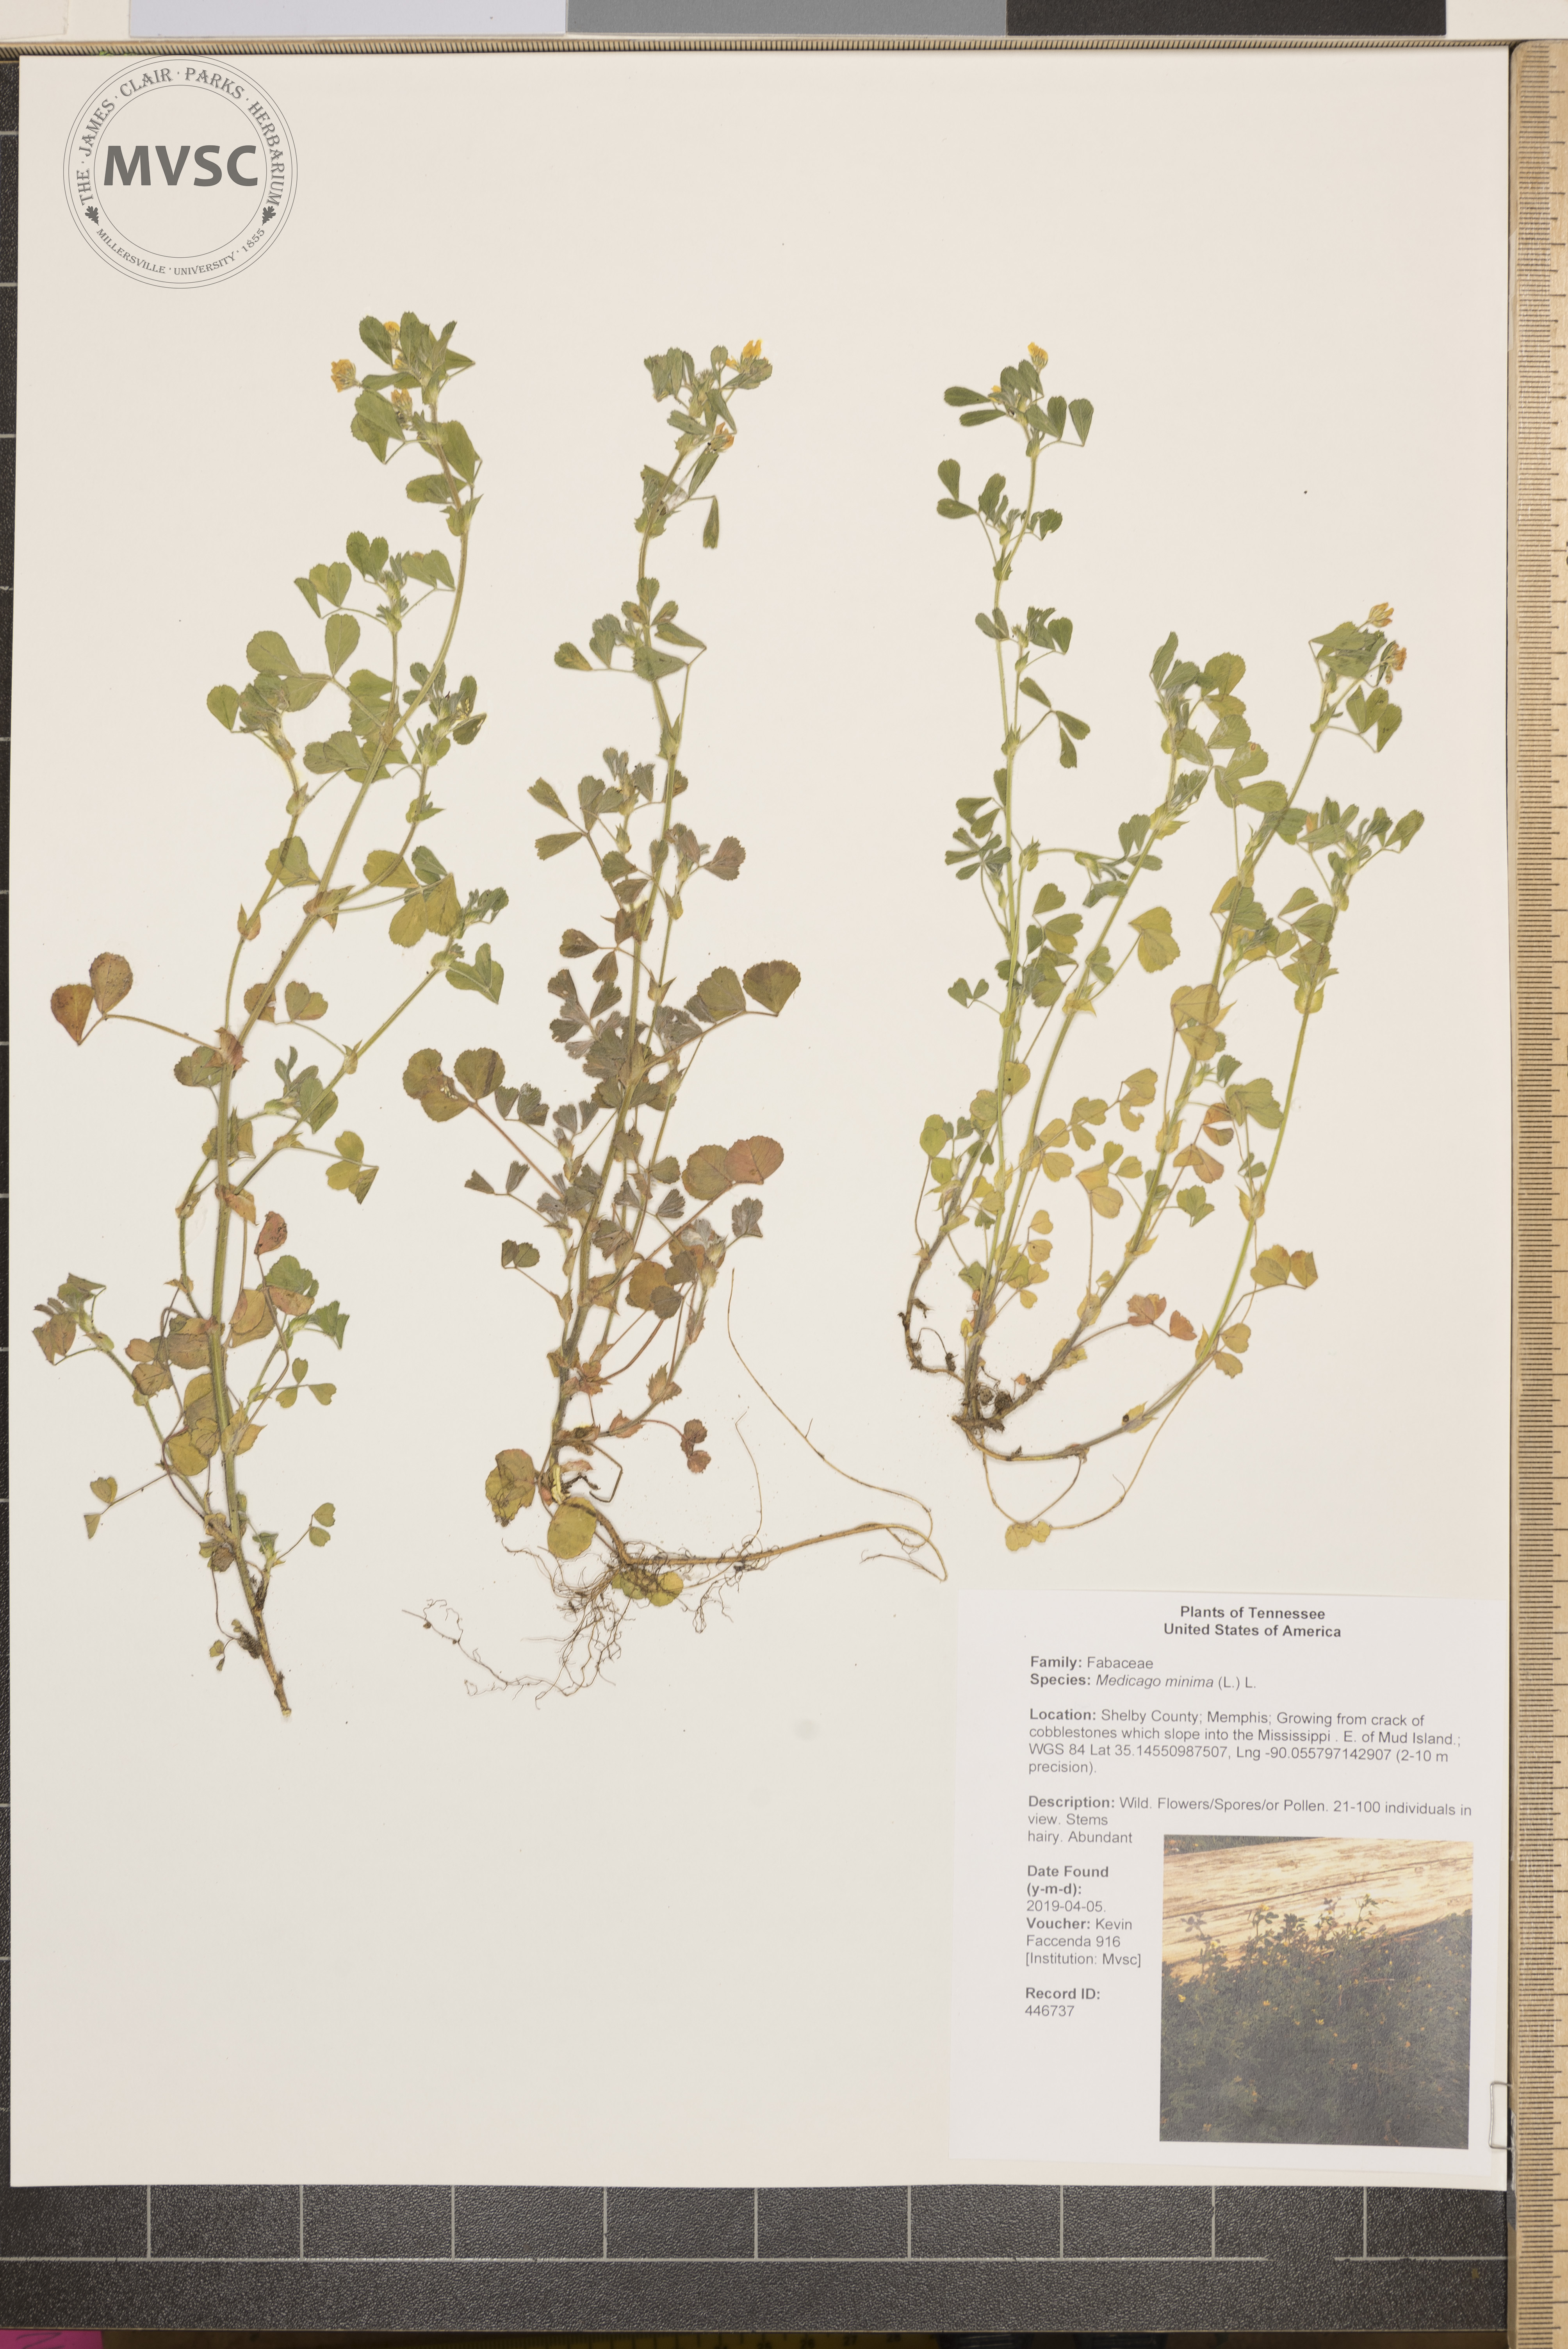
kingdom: Plantae
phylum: Tracheophyta
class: Magnoliopsida
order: Fabales
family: Fabaceae
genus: Medicago
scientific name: Medicago minima
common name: Little bur-clover
